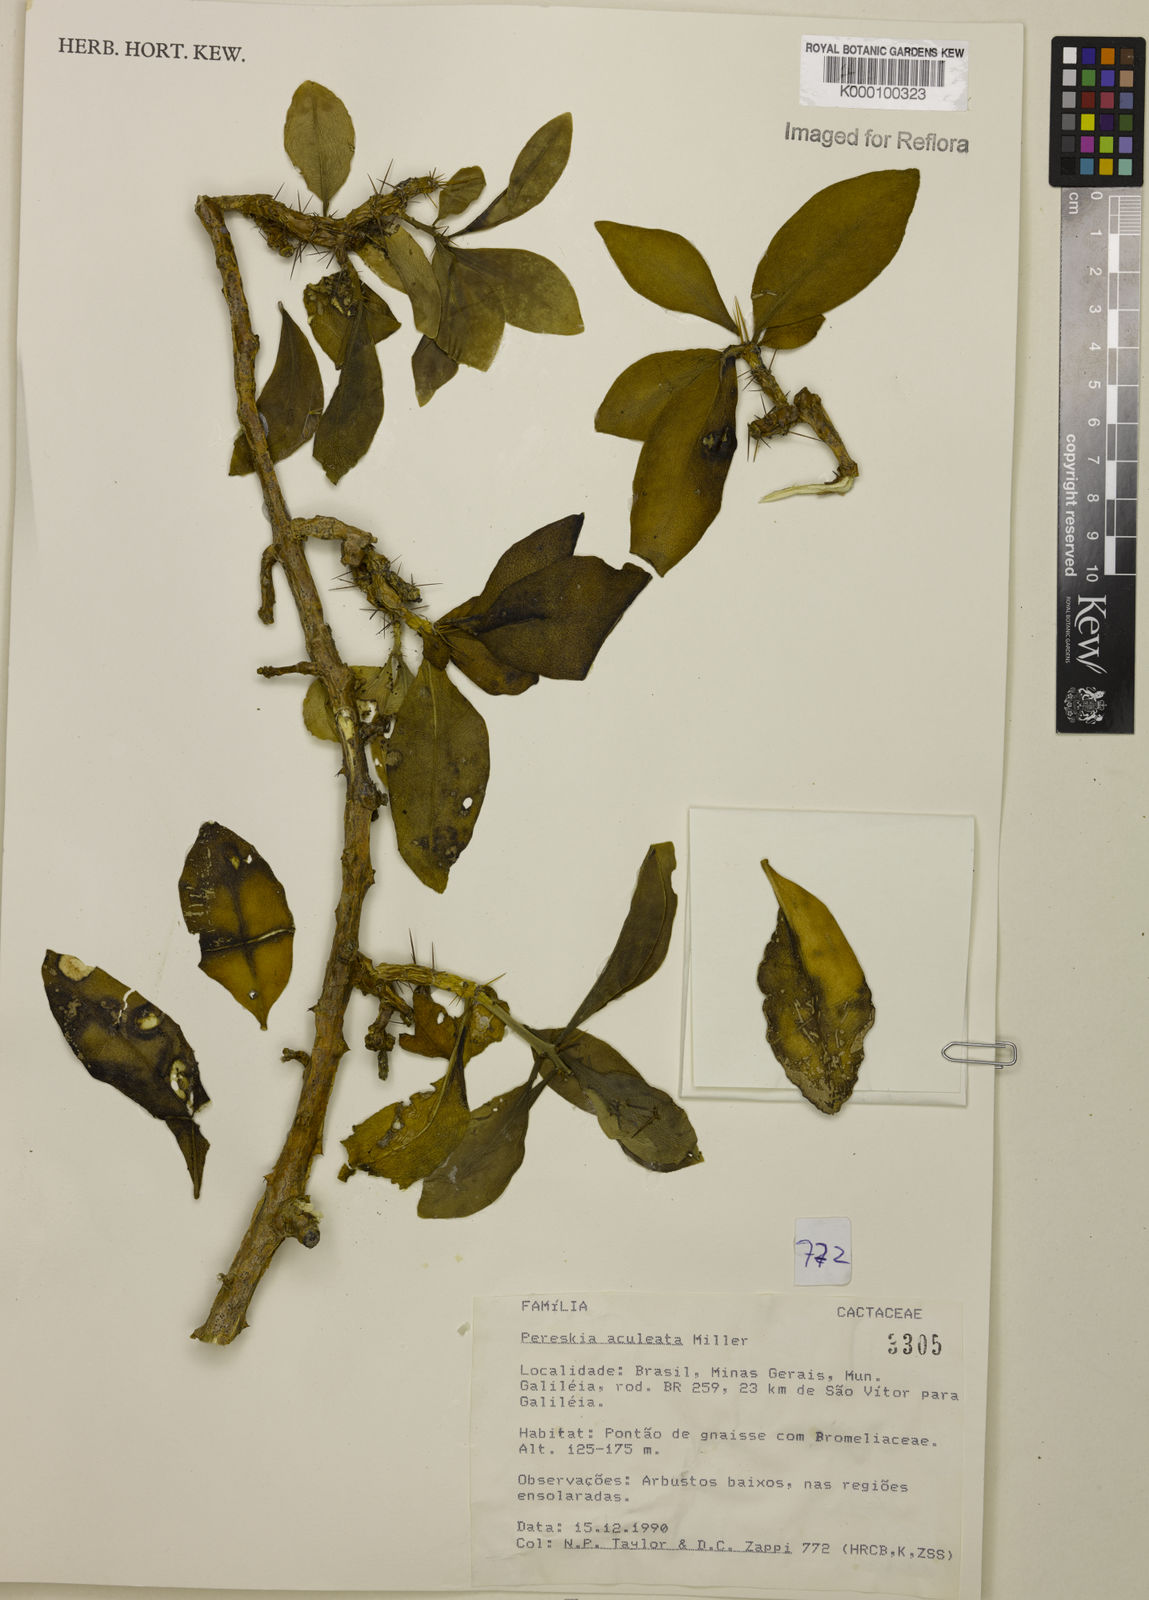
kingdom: Plantae
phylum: Tracheophyta
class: Magnoliopsida
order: Caryophyllales
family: Cactaceae
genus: Pereskia
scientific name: Pereskia aculeata
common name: Barbados gooseberry
